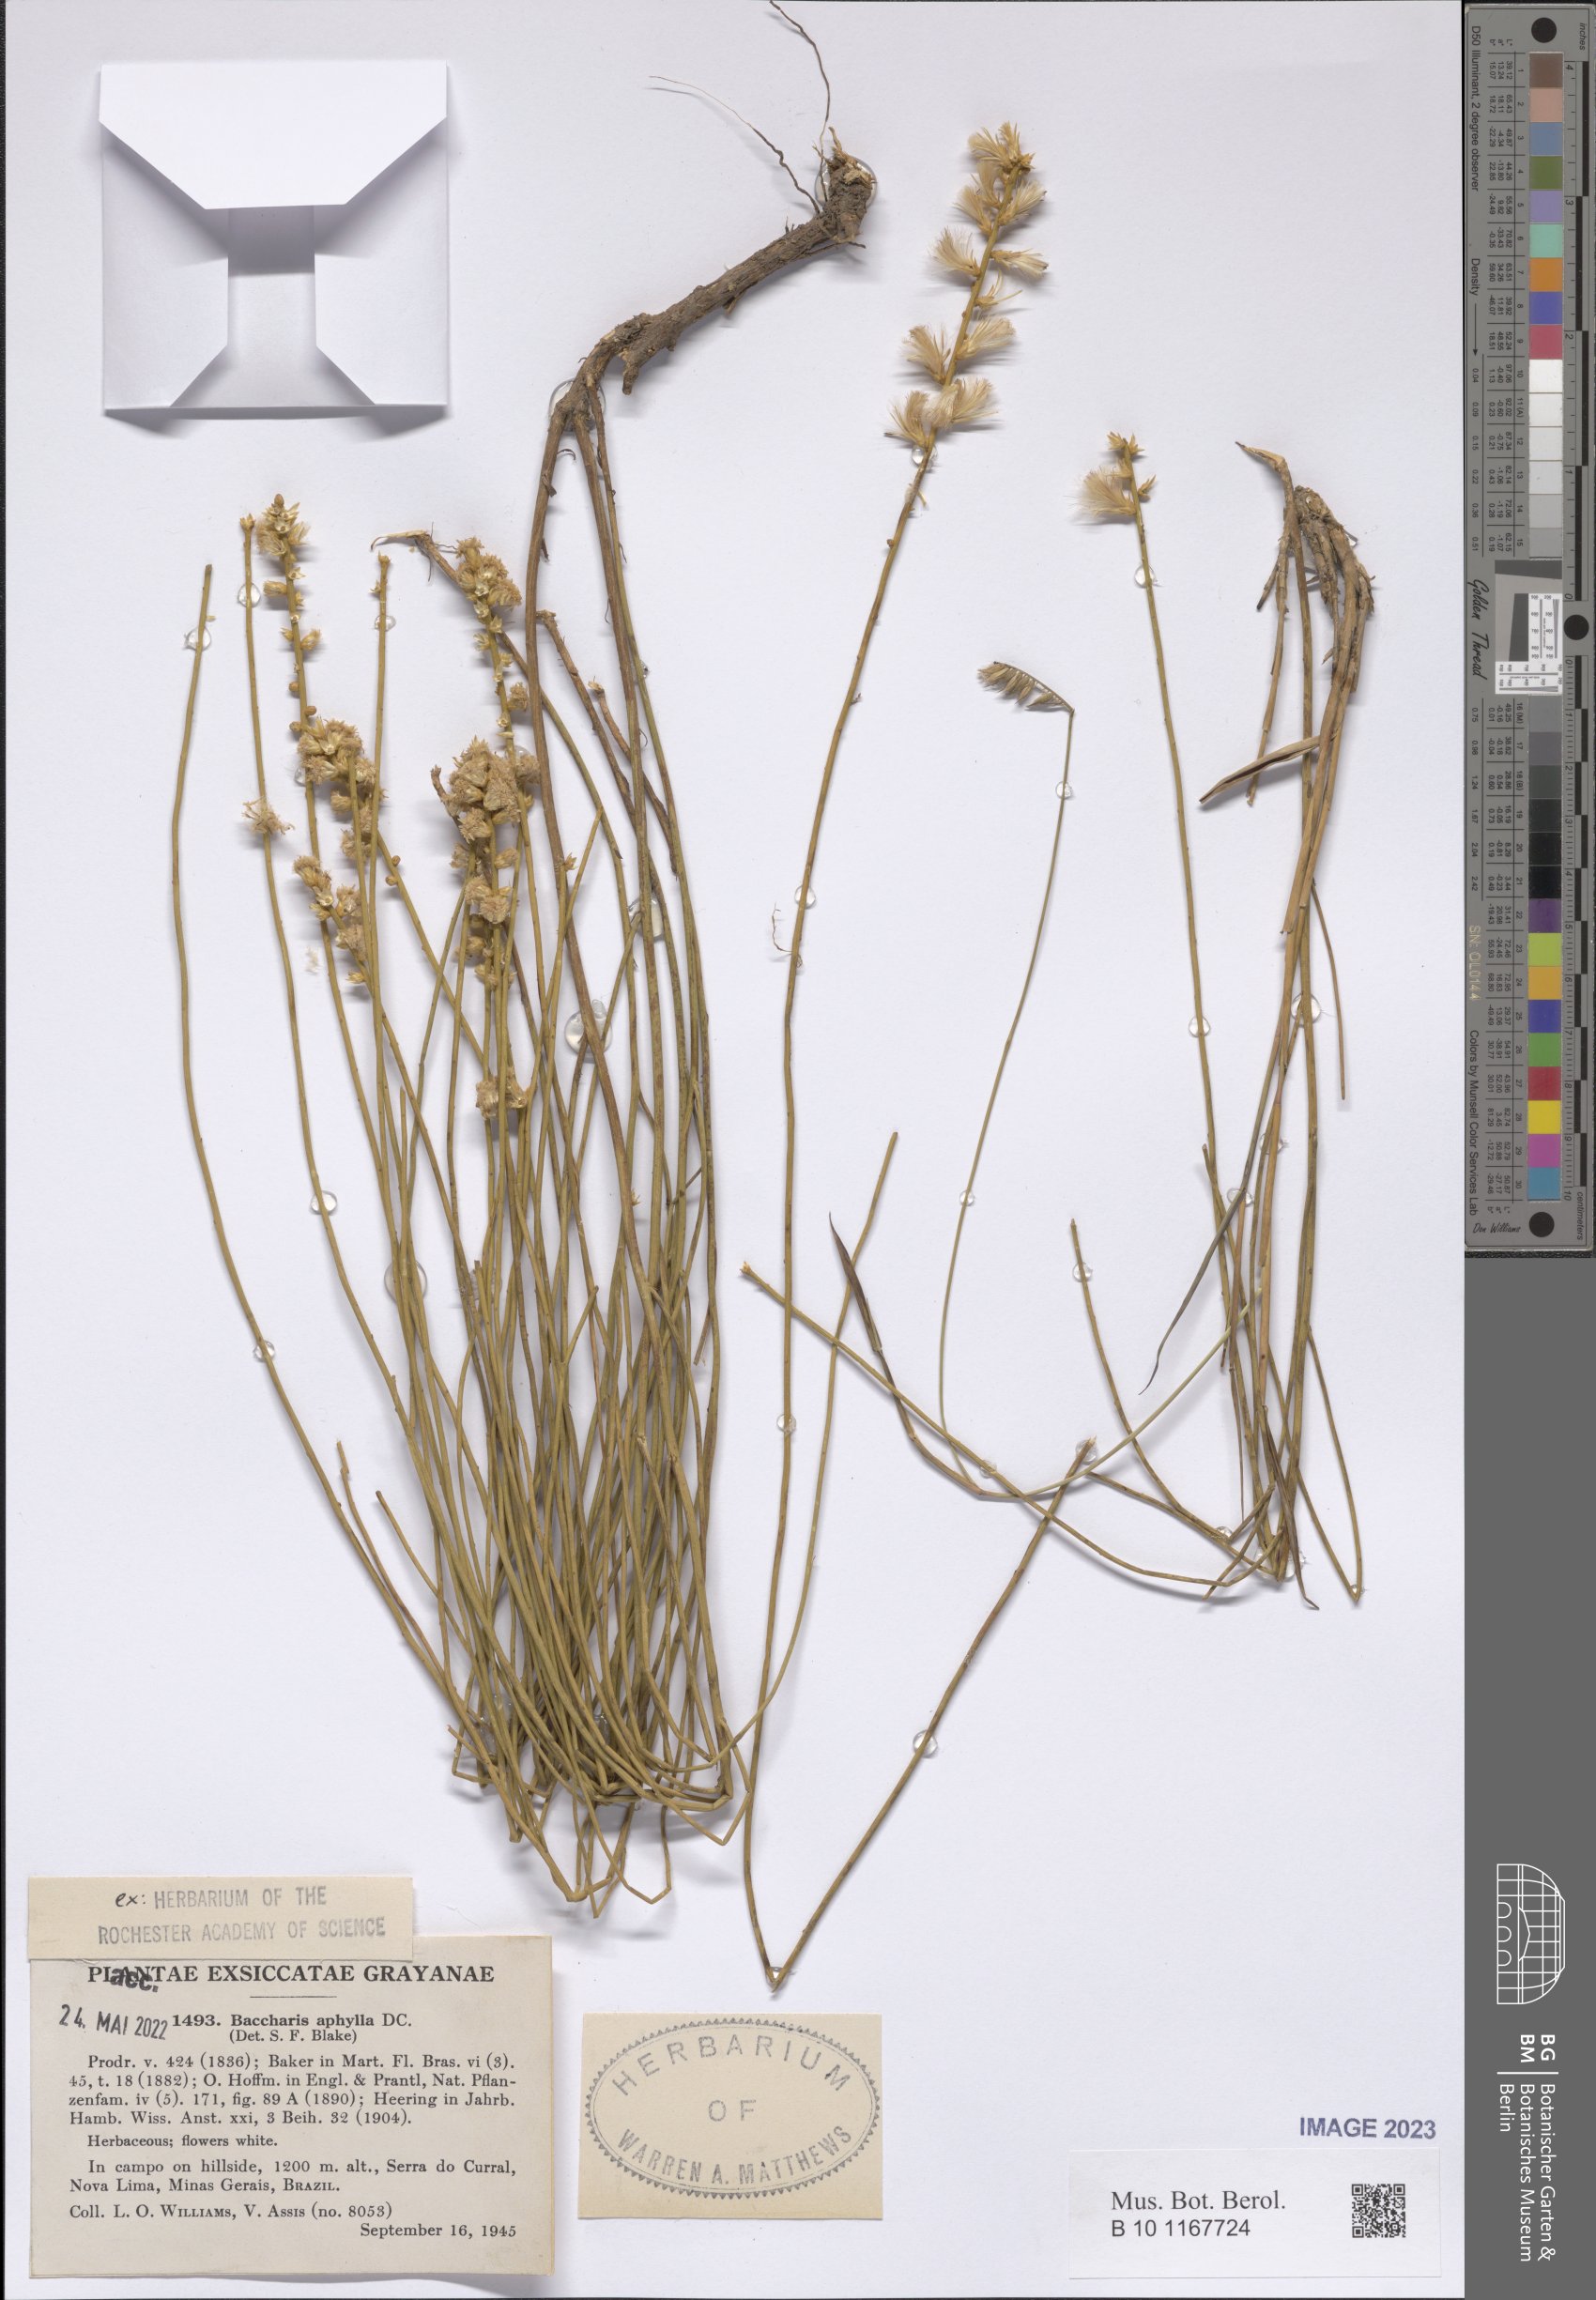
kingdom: Plantae
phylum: Tracheophyta
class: Magnoliopsida
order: Asterales
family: Asteraceae
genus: Baccharis
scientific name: Baccharis aphylla
